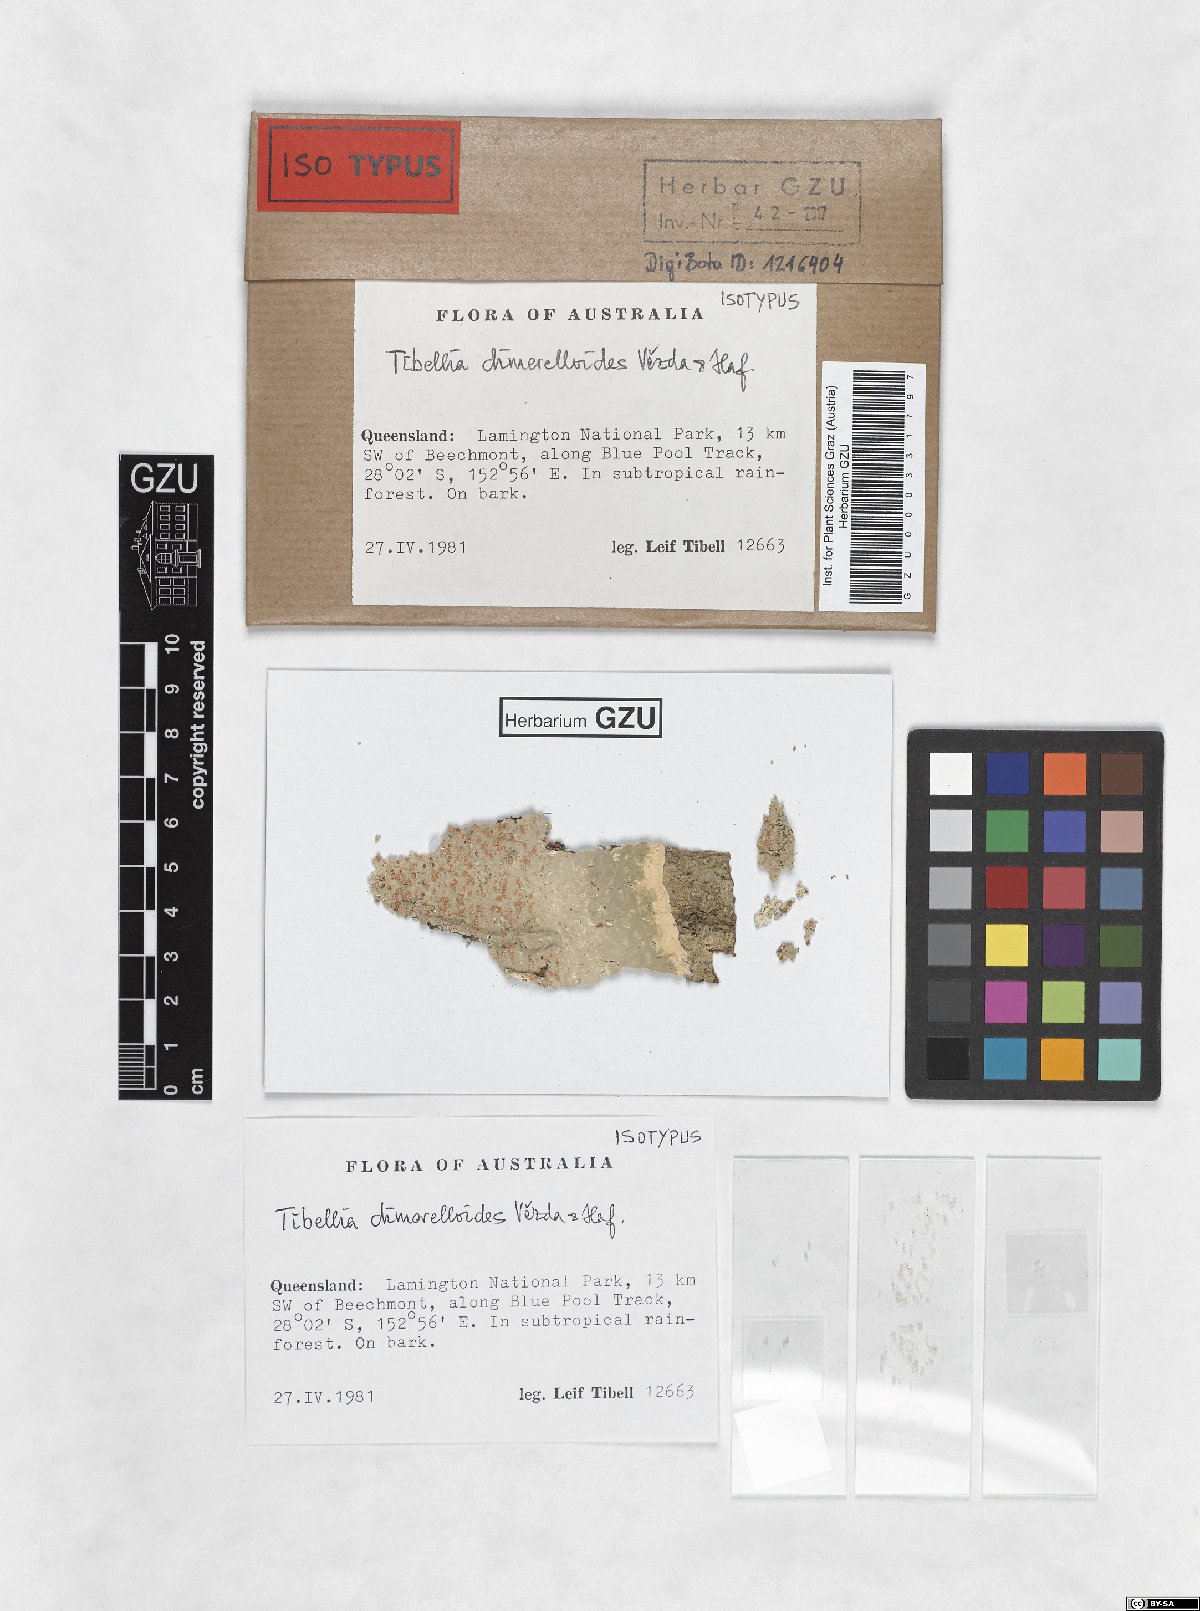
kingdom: Fungi
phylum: Ascomycota
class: Lecanoromycetes
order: Lecanorales
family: Ramalinaceae
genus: Tibellia
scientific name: Tibellia dimerelloides
